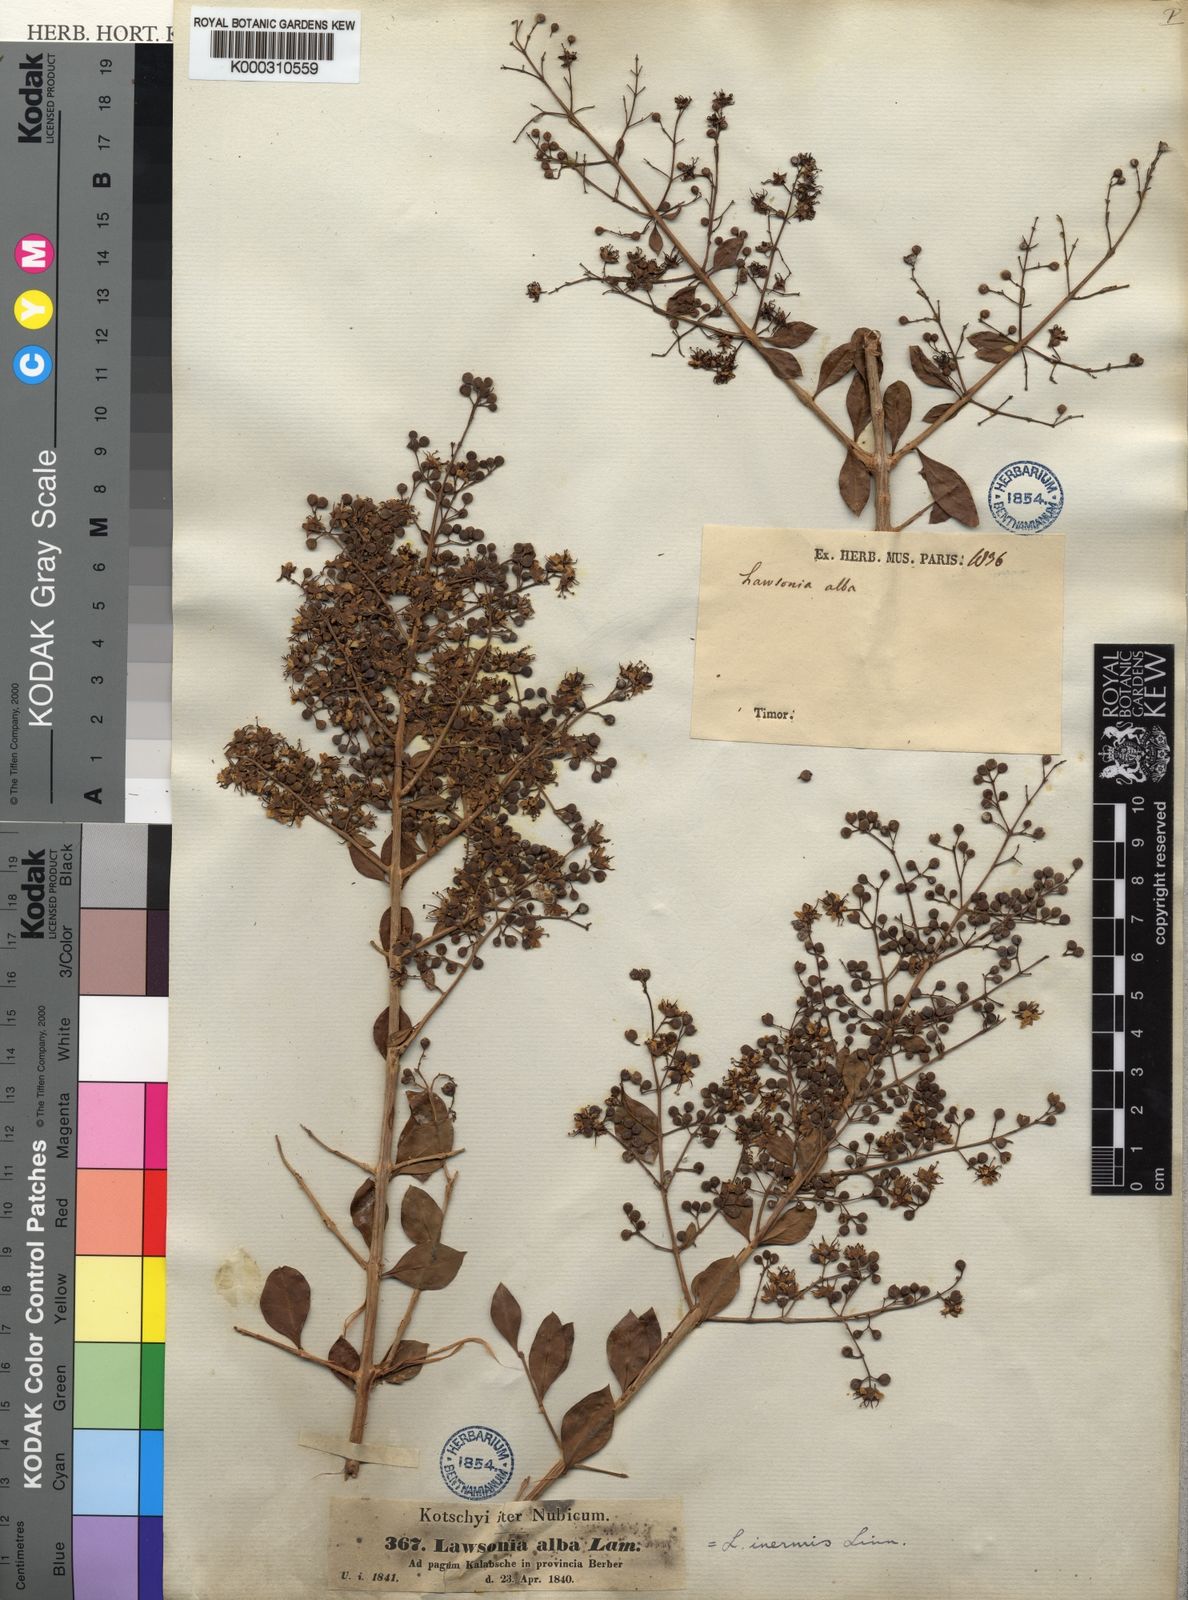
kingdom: Plantae
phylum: Tracheophyta
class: Magnoliopsida
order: Myrtales
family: Lythraceae
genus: Lawsonia
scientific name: Lawsonia inermis
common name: Henna
